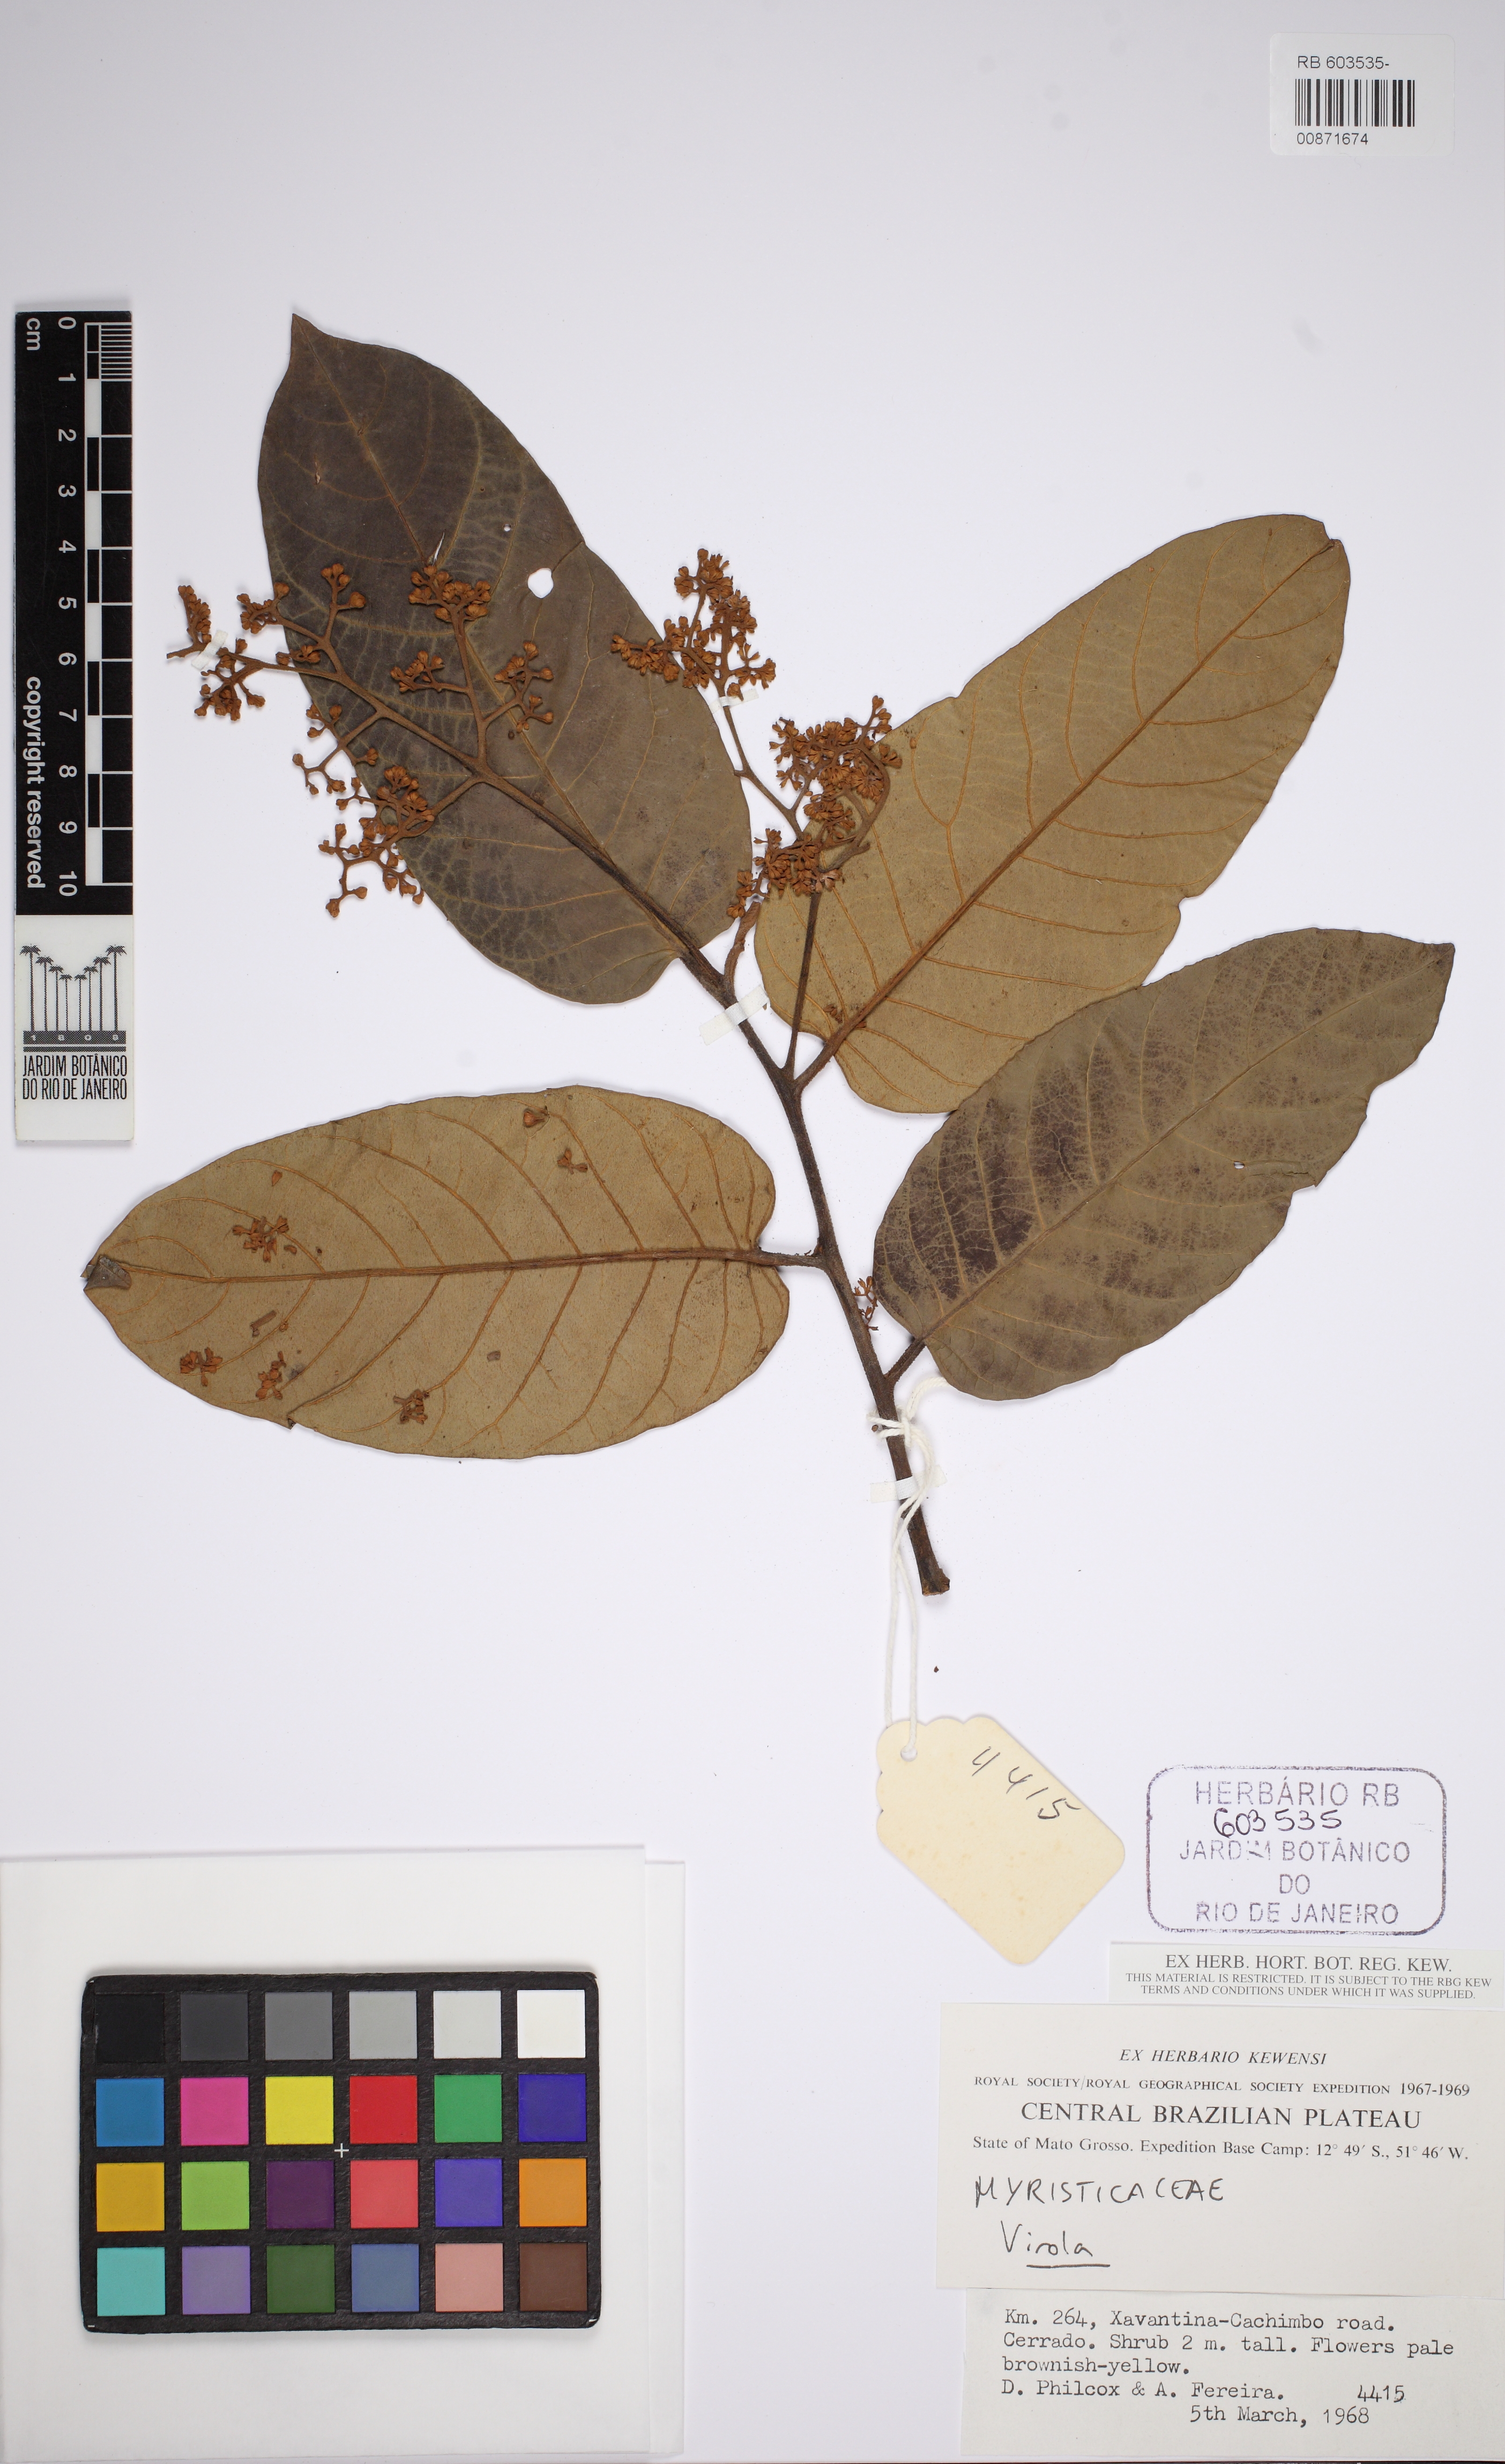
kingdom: Plantae
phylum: Tracheophyta
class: Magnoliopsida
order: Magnoliales
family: Myristicaceae
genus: Virola
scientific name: Virola
